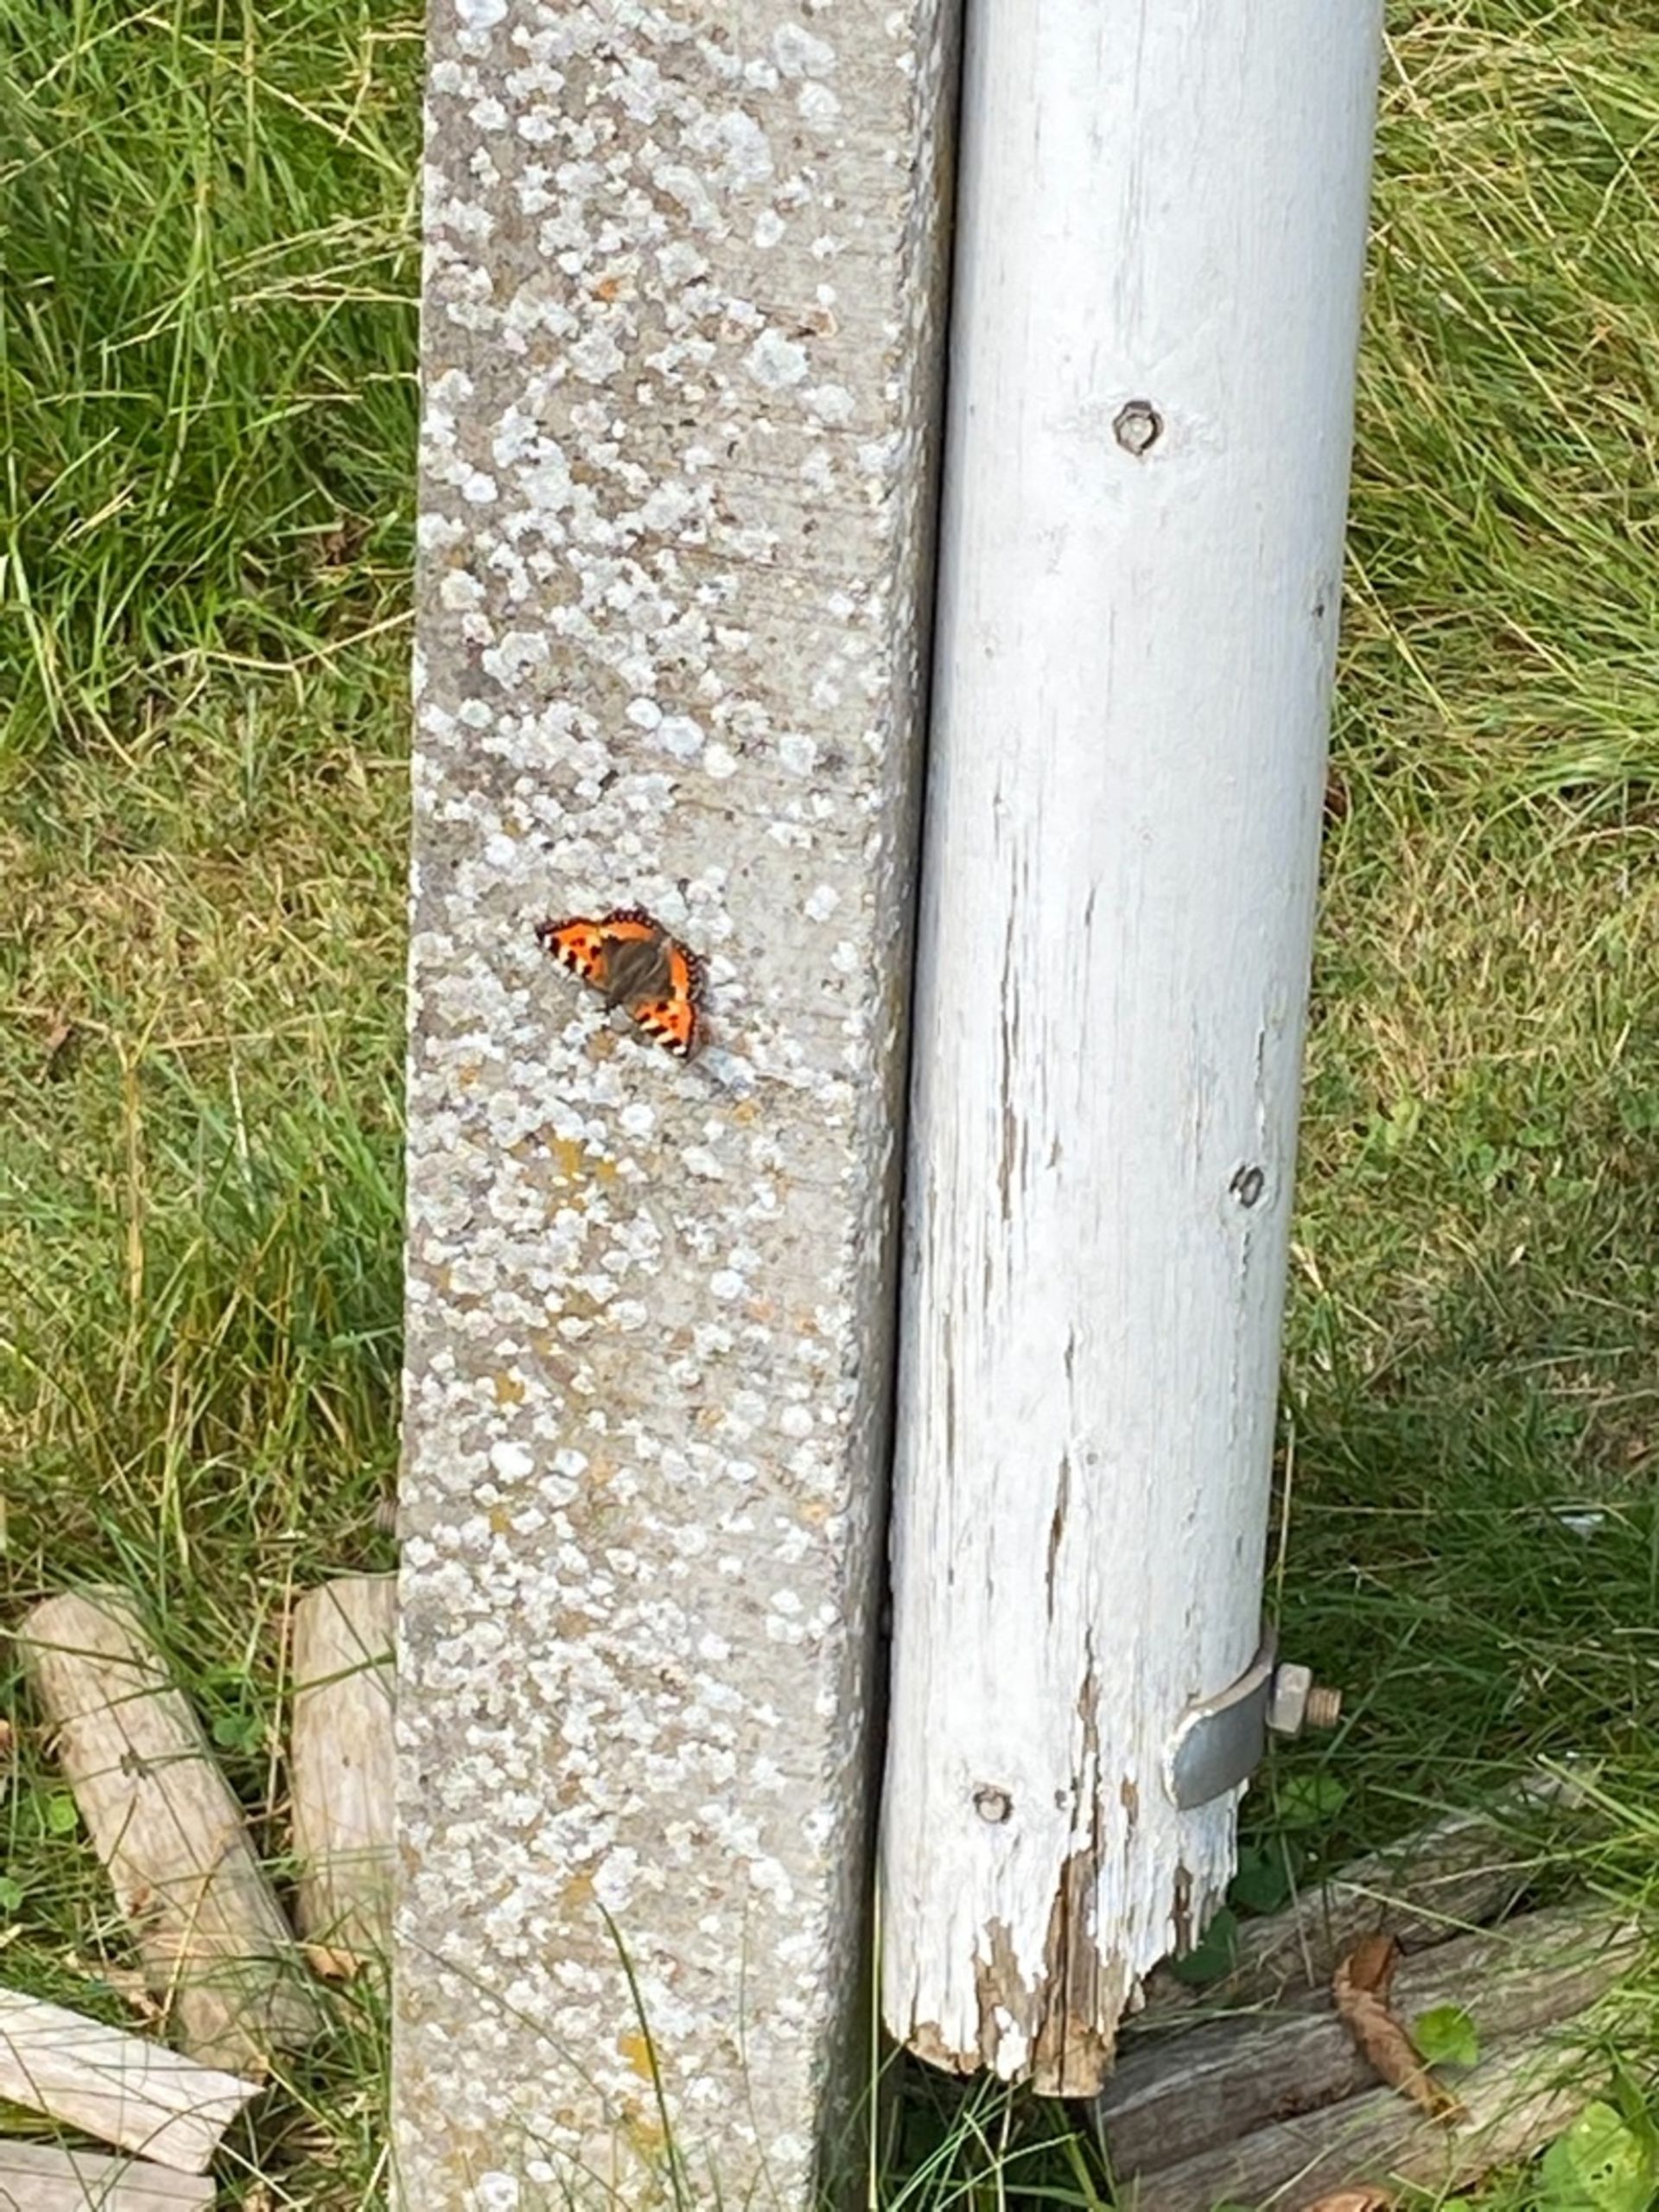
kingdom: Animalia
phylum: Arthropoda
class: Insecta
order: Lepidoptera
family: Nymphalidae
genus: Aglais
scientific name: Aglais urticae
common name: Nældens takvinge
